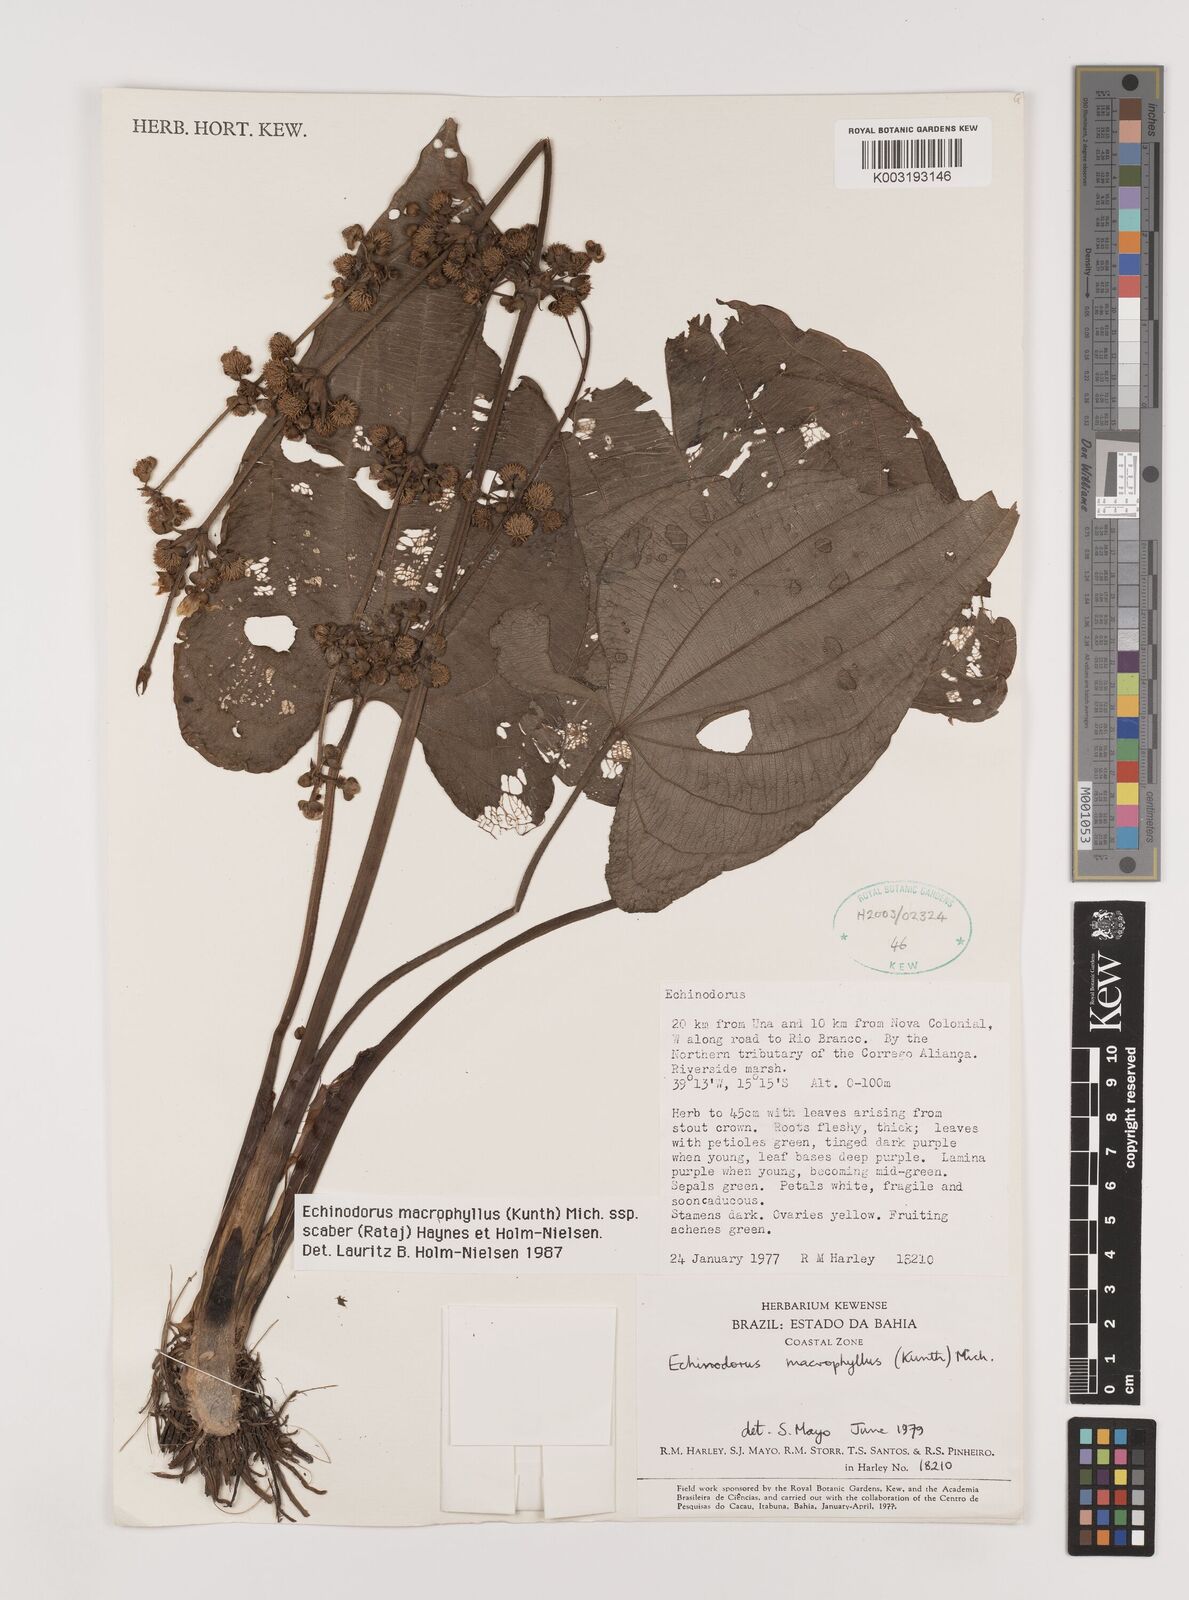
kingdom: Plantae
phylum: Tracheophyta
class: Liliopsida
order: Alismatales
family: Alismataceae
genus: Aquarius
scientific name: Aquarius scaber
